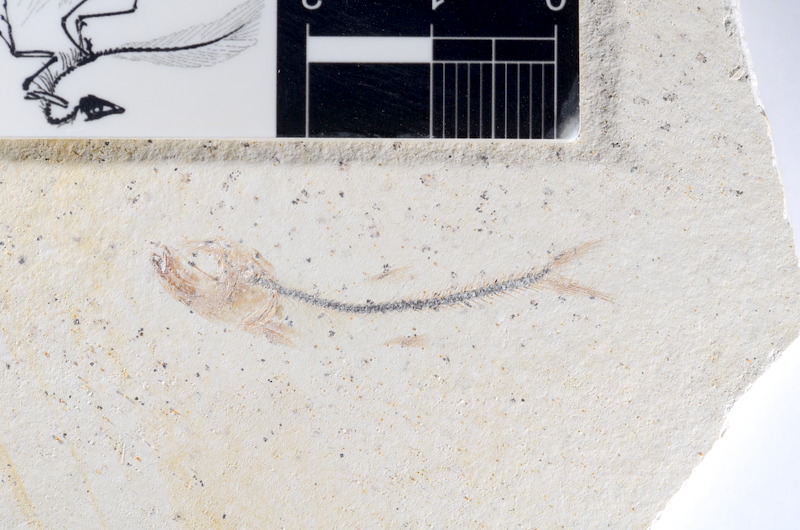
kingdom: Animalia
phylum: Chordata
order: Salmoniformes
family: Orthogonikleithridae
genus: Orthogonikleithrus
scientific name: Orthogonikleithrus hoelli
